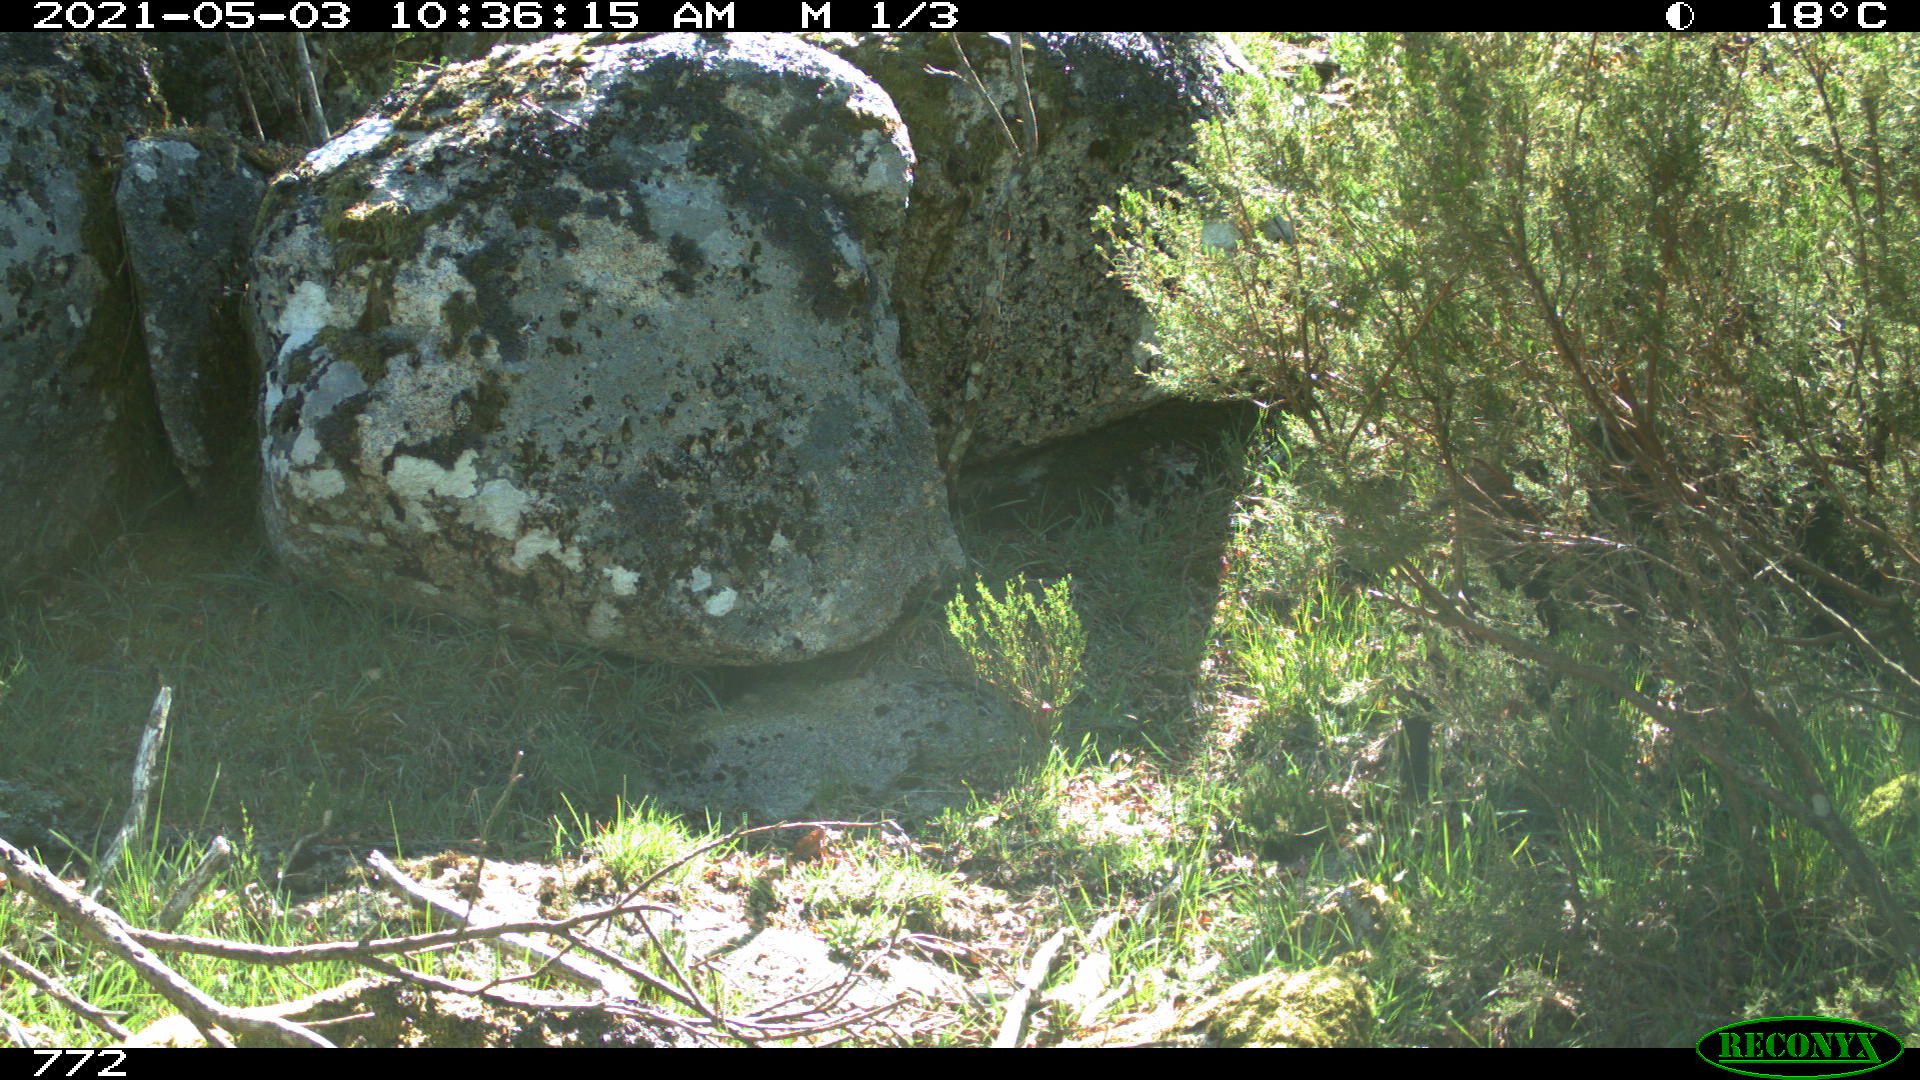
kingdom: Animalia
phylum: Chordata
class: Mammalia
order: Artiodactyla
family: Suidae
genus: Sus
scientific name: Sus scrofa
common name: Wild boar
